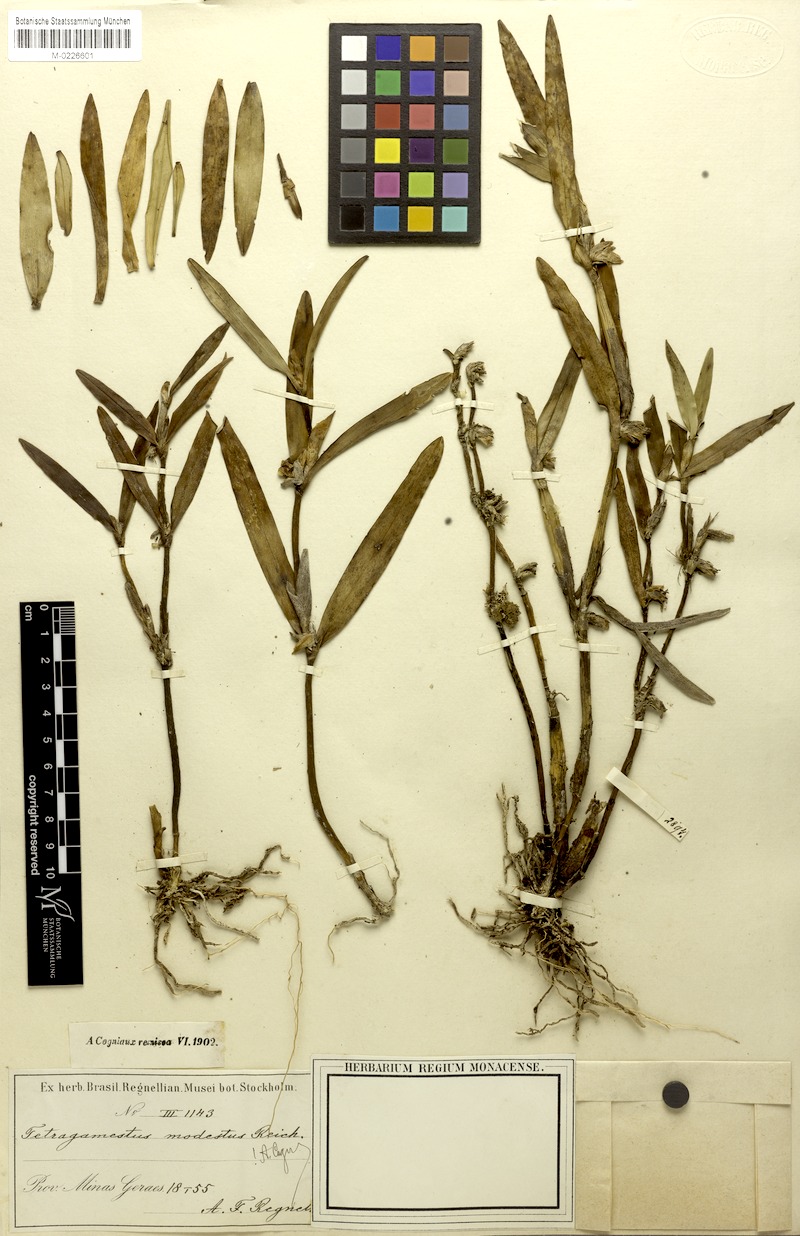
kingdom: Plantae
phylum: Tracheophyta
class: Liliopsida
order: Asparagales
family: Orchidaceae
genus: Scaphyglottis
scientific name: Scaphyglottis modesta
